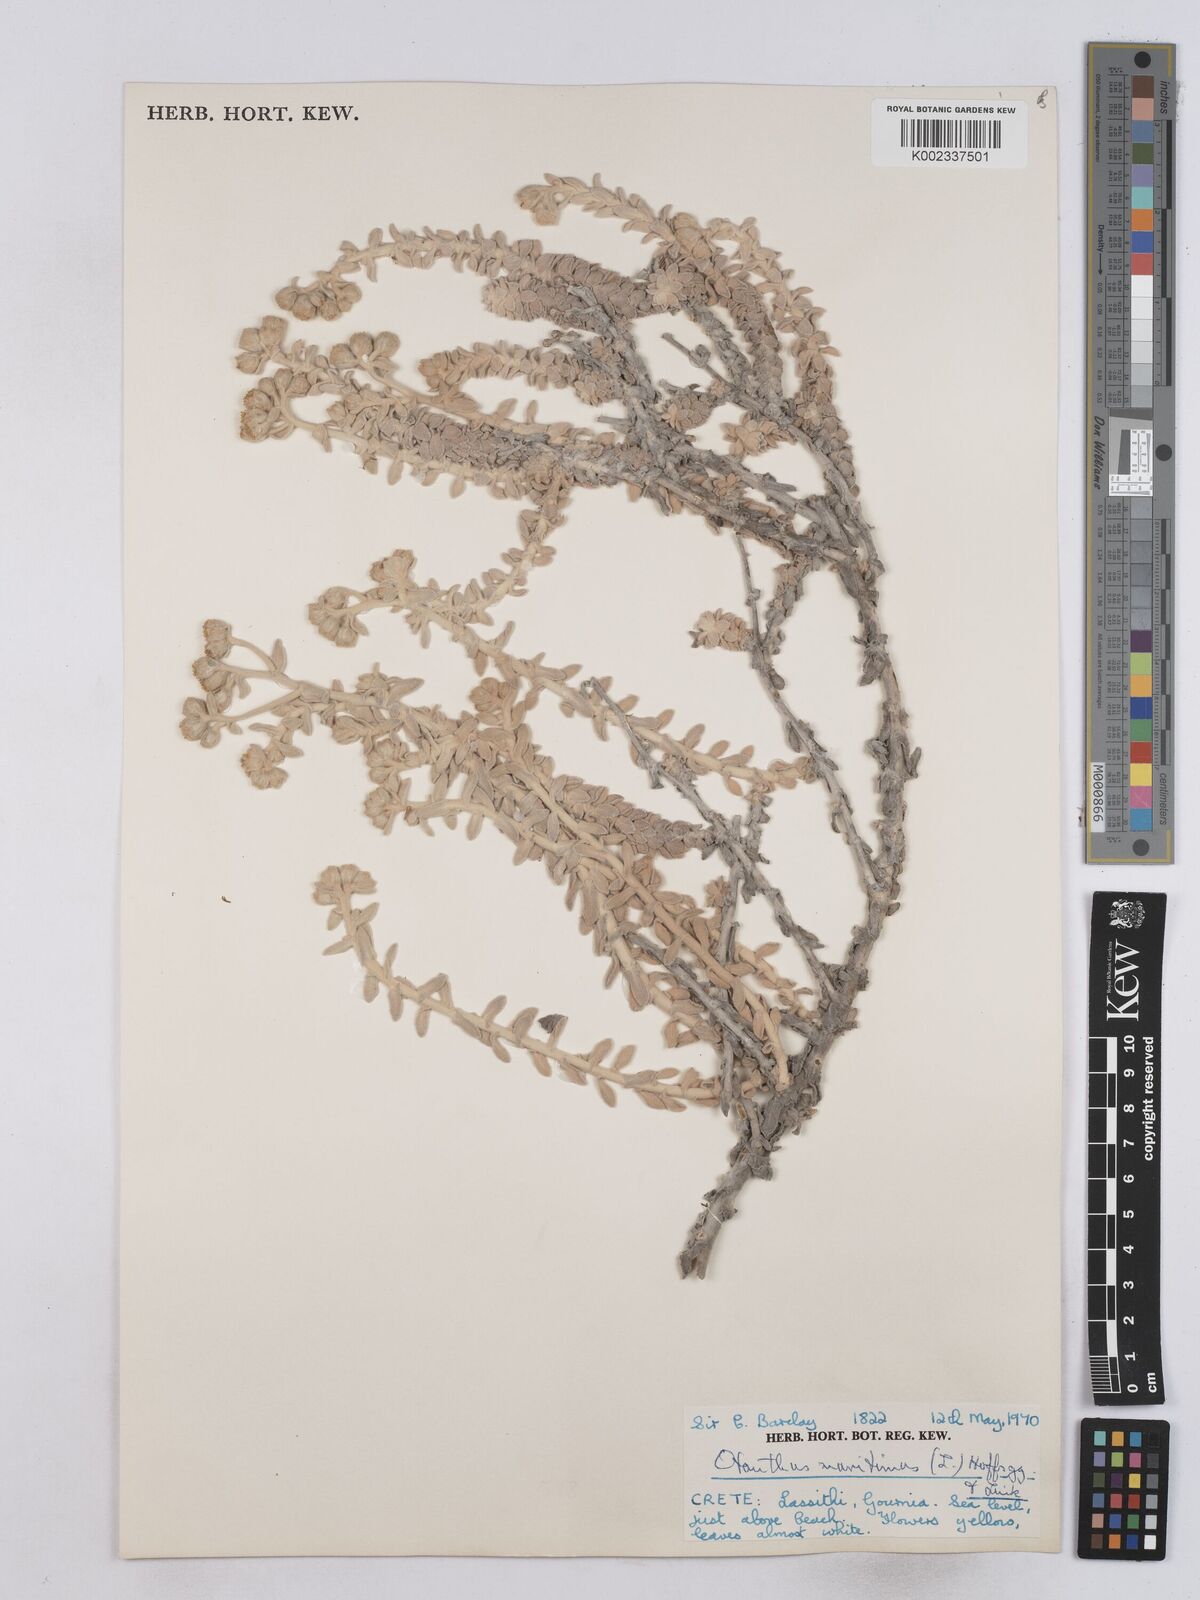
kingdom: Plantae
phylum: Tracheophyta
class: Magnoliopsida
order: Asterales
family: Asteraceae
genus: Achillea
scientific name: Achillea maritima
